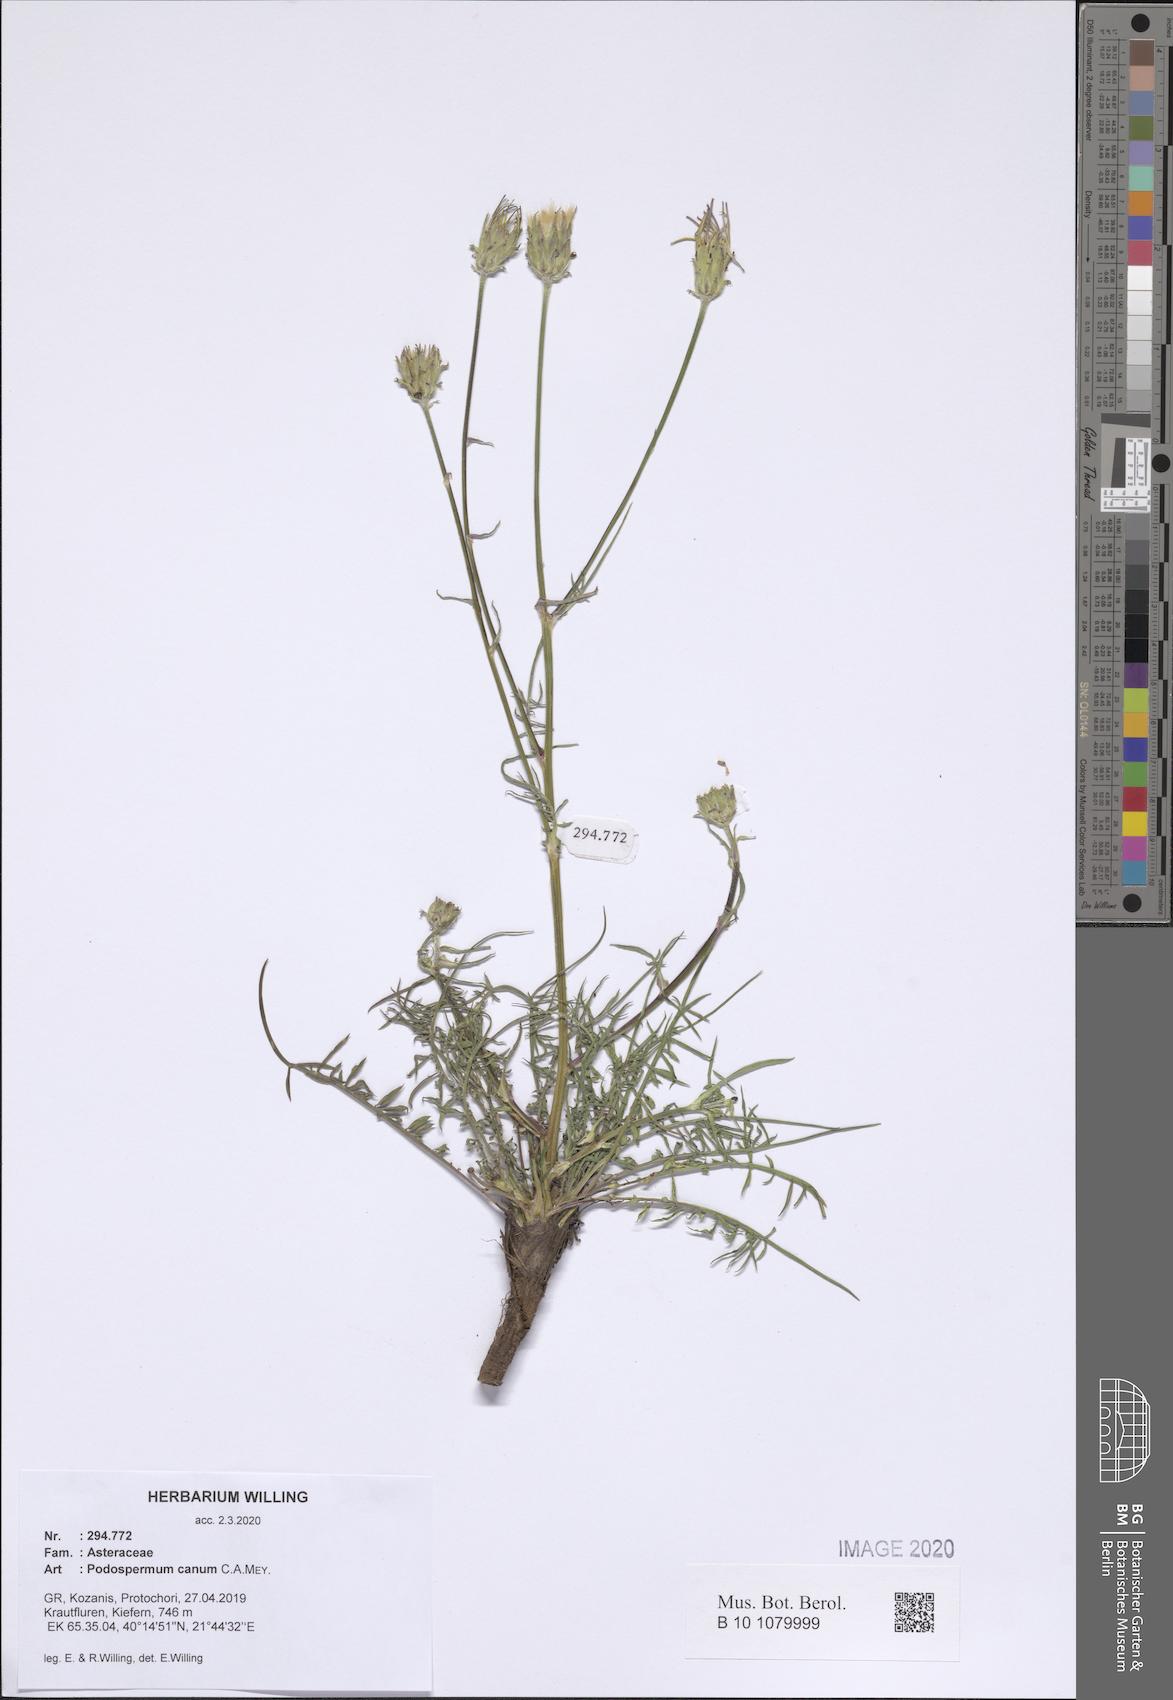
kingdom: Plantae
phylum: Tracheophyta
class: Magnoliopsida
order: Asterales
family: Asteraceae
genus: Scorzonera
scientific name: Scorzonera cana
